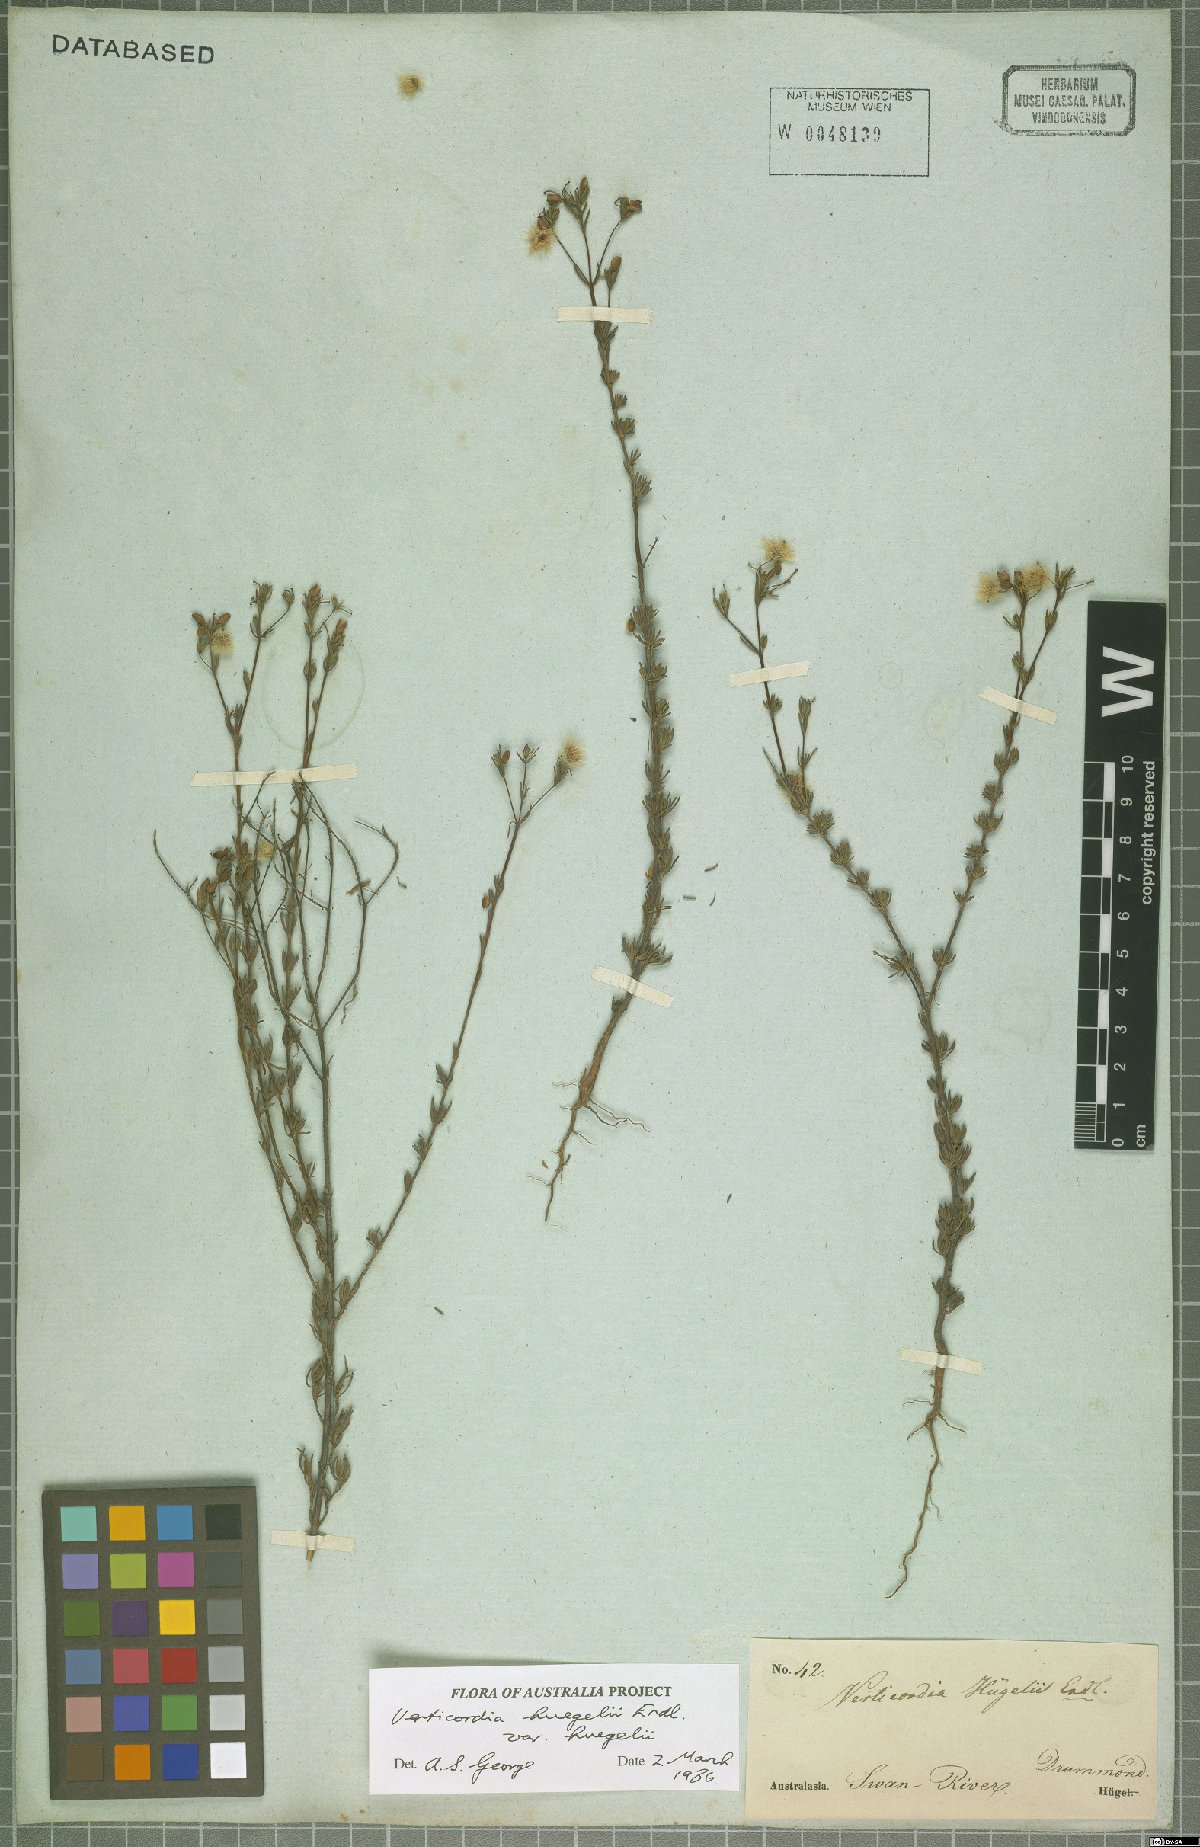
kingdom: Plantae
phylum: Tracheophyta
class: Magnoliopsida
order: Myrtales
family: Myrtaceae
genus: Verticordia
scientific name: Verticordia huegelii
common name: Variegate feather-flower
